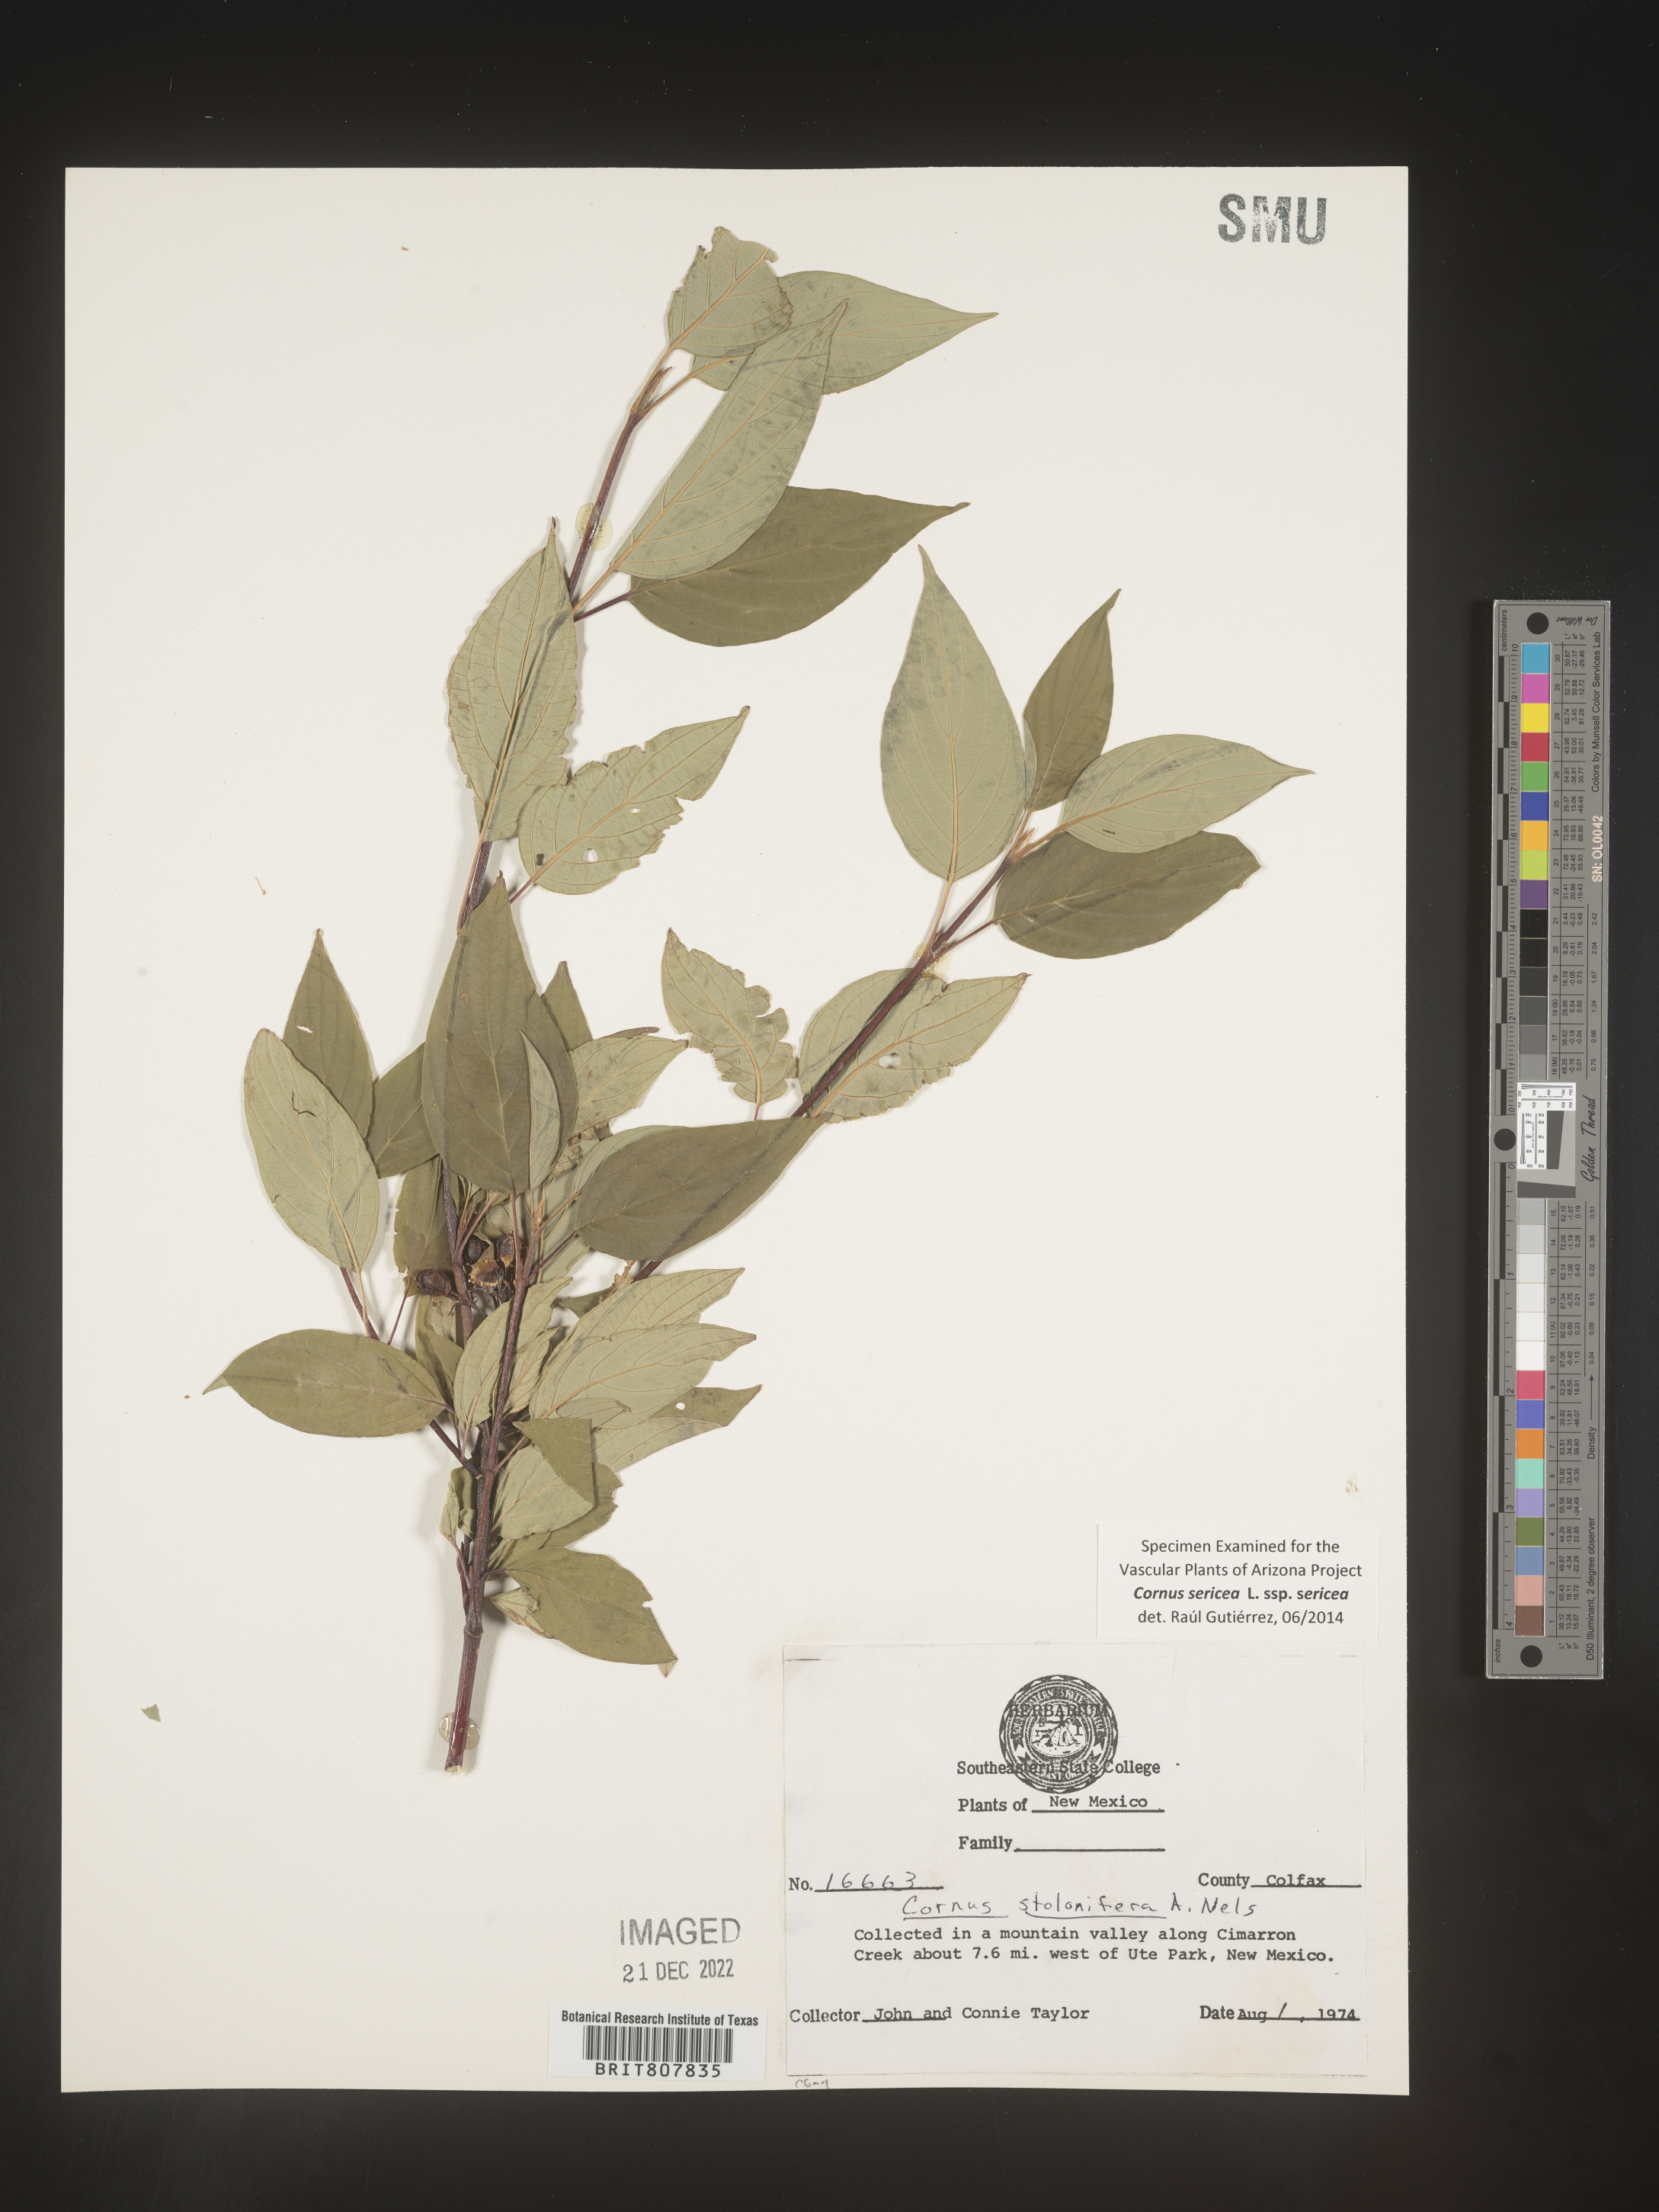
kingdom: Plantae
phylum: Tracheophyta
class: Magnoliopsida
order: Cornales
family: Cornaceae
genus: Cornus
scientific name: Cornus
